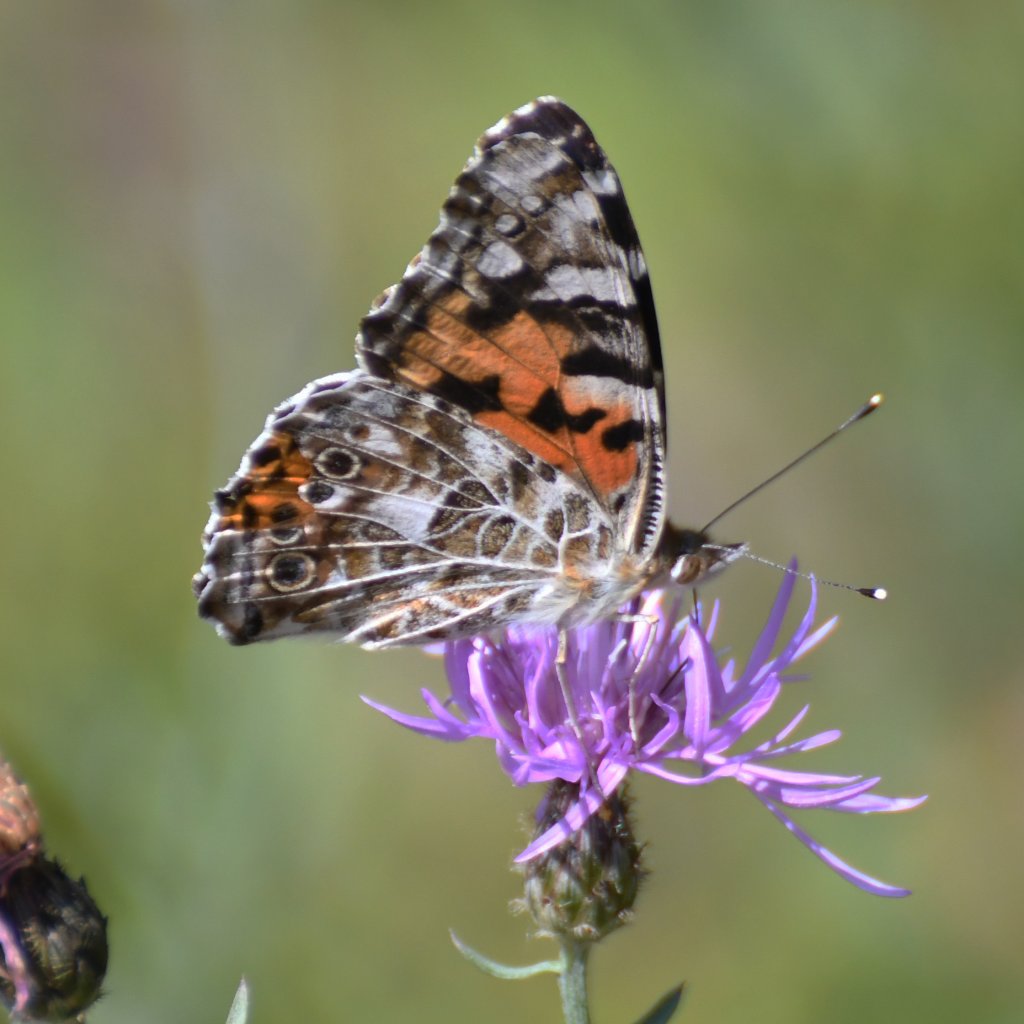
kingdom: Animalia
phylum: Arthropoda
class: Insecta
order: Lepidoptera
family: Nymphalidae
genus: Vanessa
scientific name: Vanessa cardui
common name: Painted Lady
